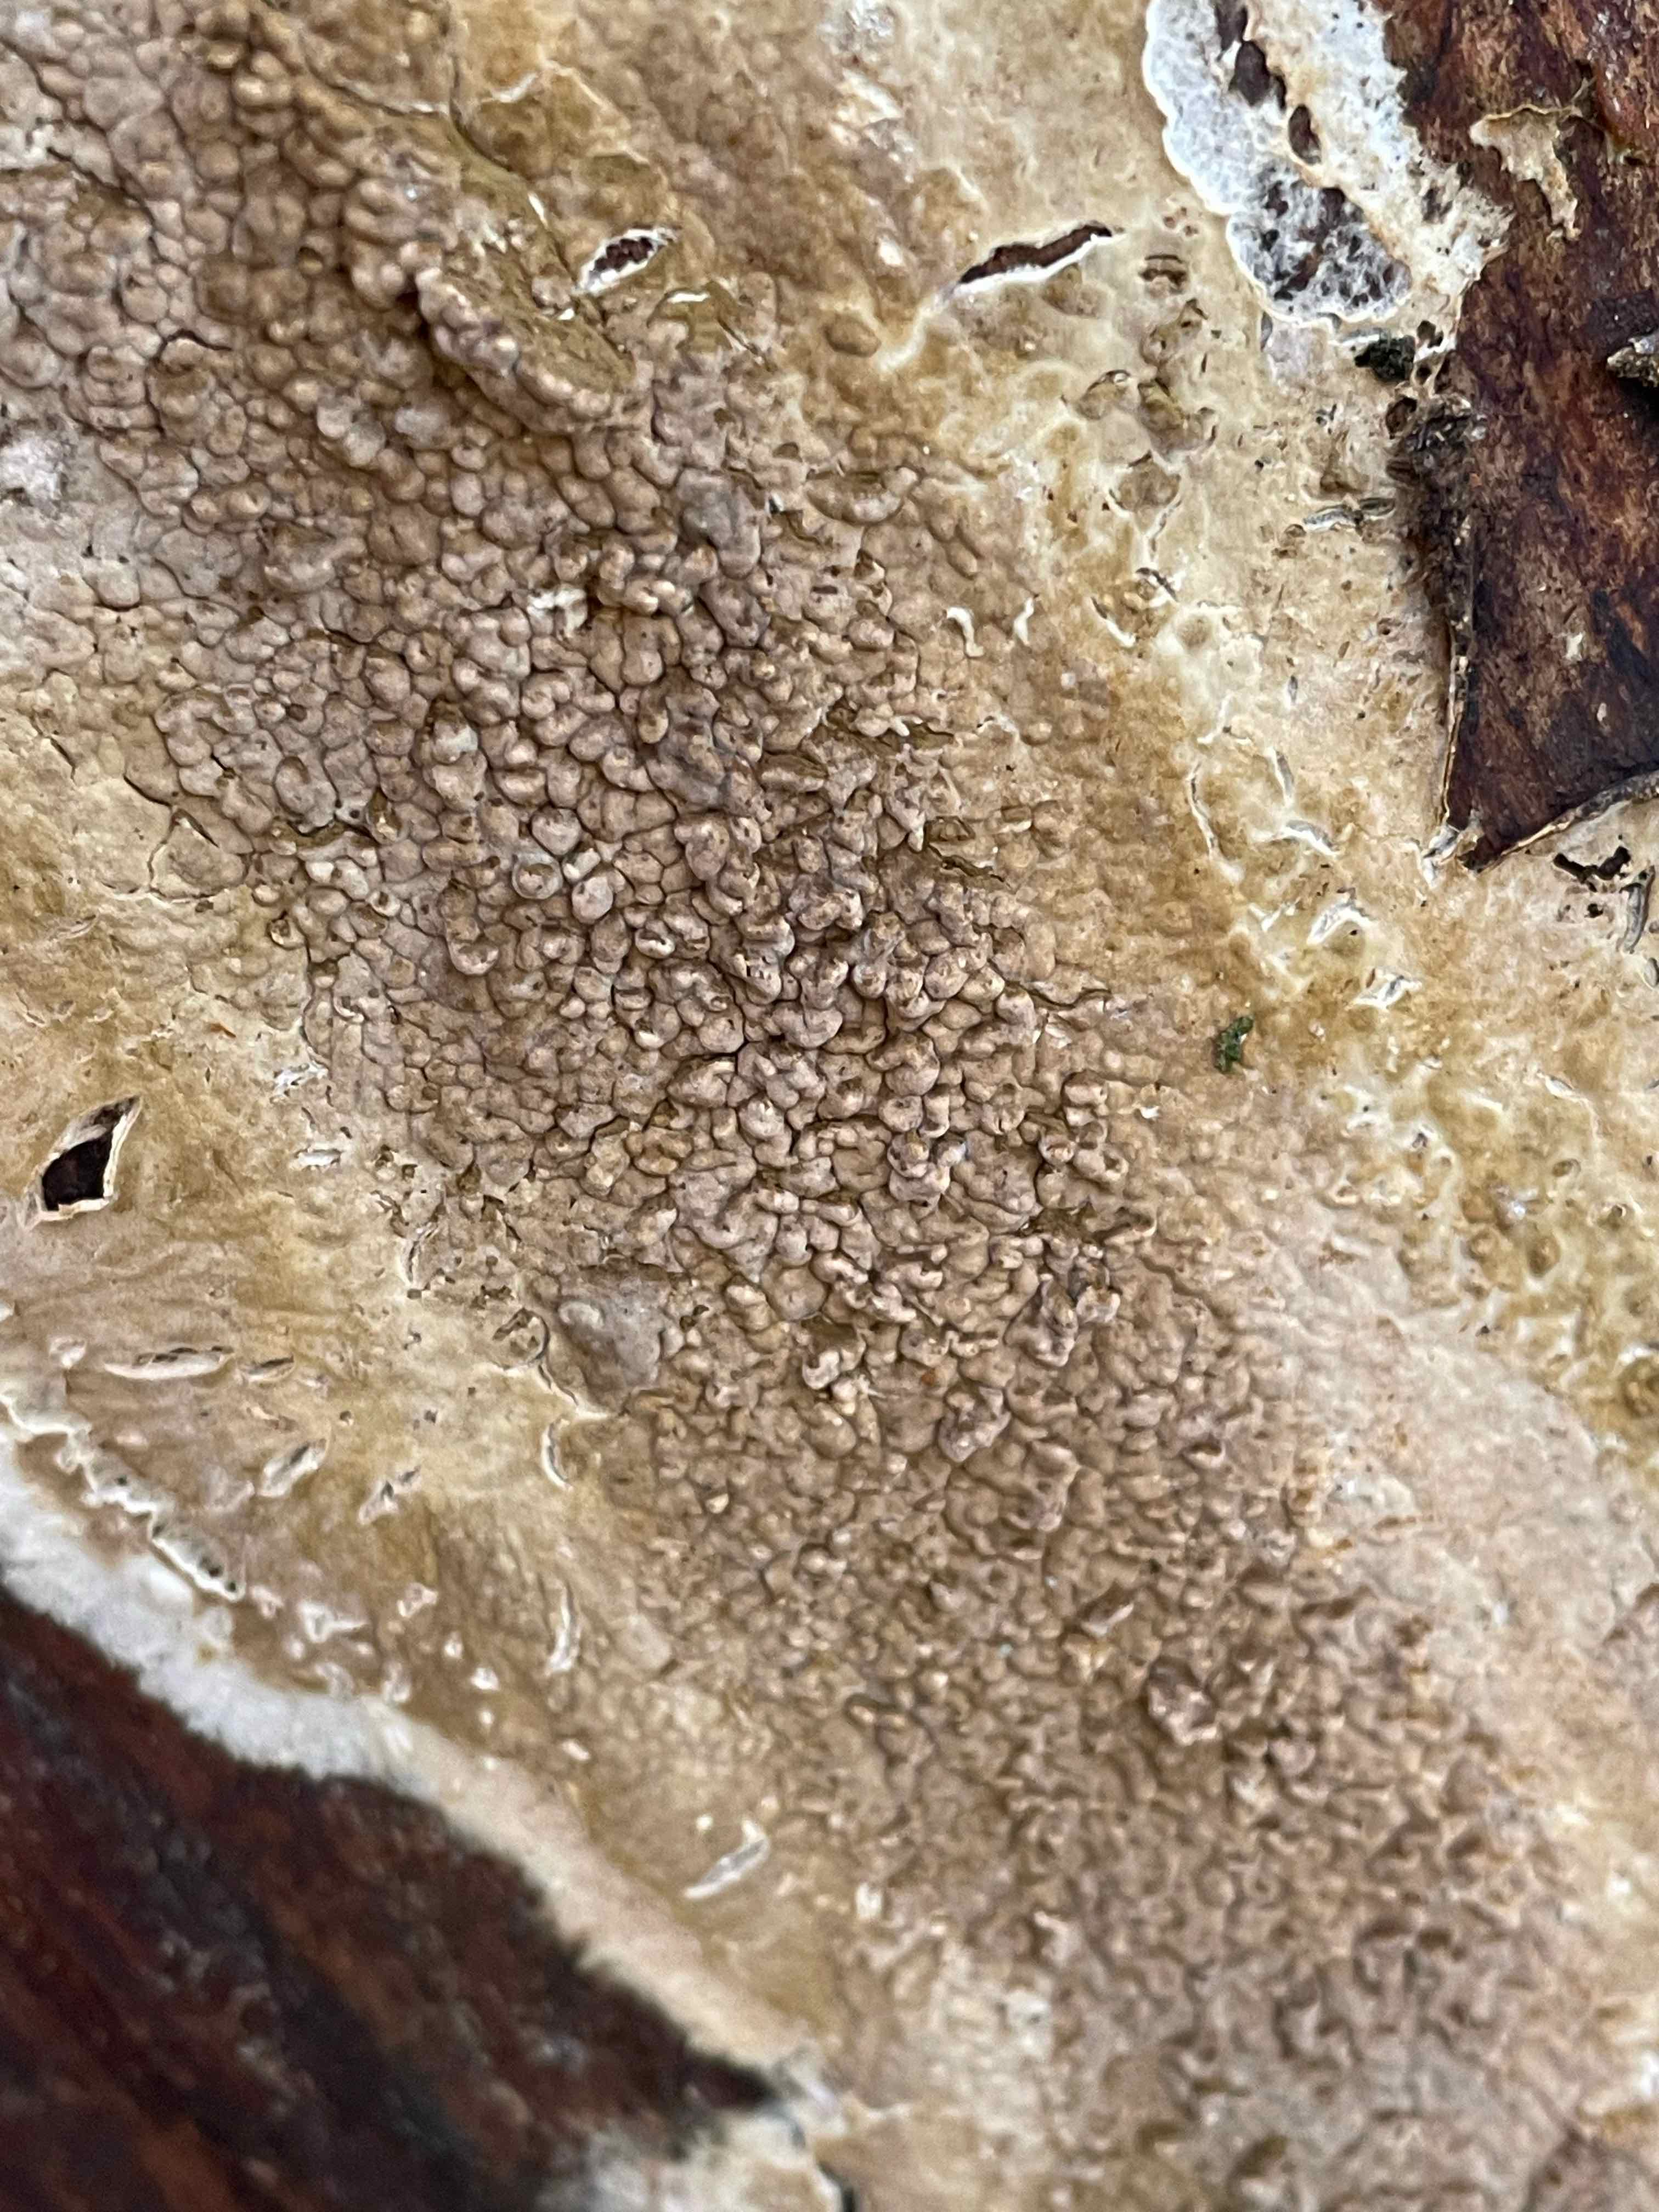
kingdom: Fungi
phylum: Basidiomycota
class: Agaricomycetes
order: Boletales
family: Coniophoraceae
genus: Coniophora
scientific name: Coniophora puteana
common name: gul tømmersvamp
